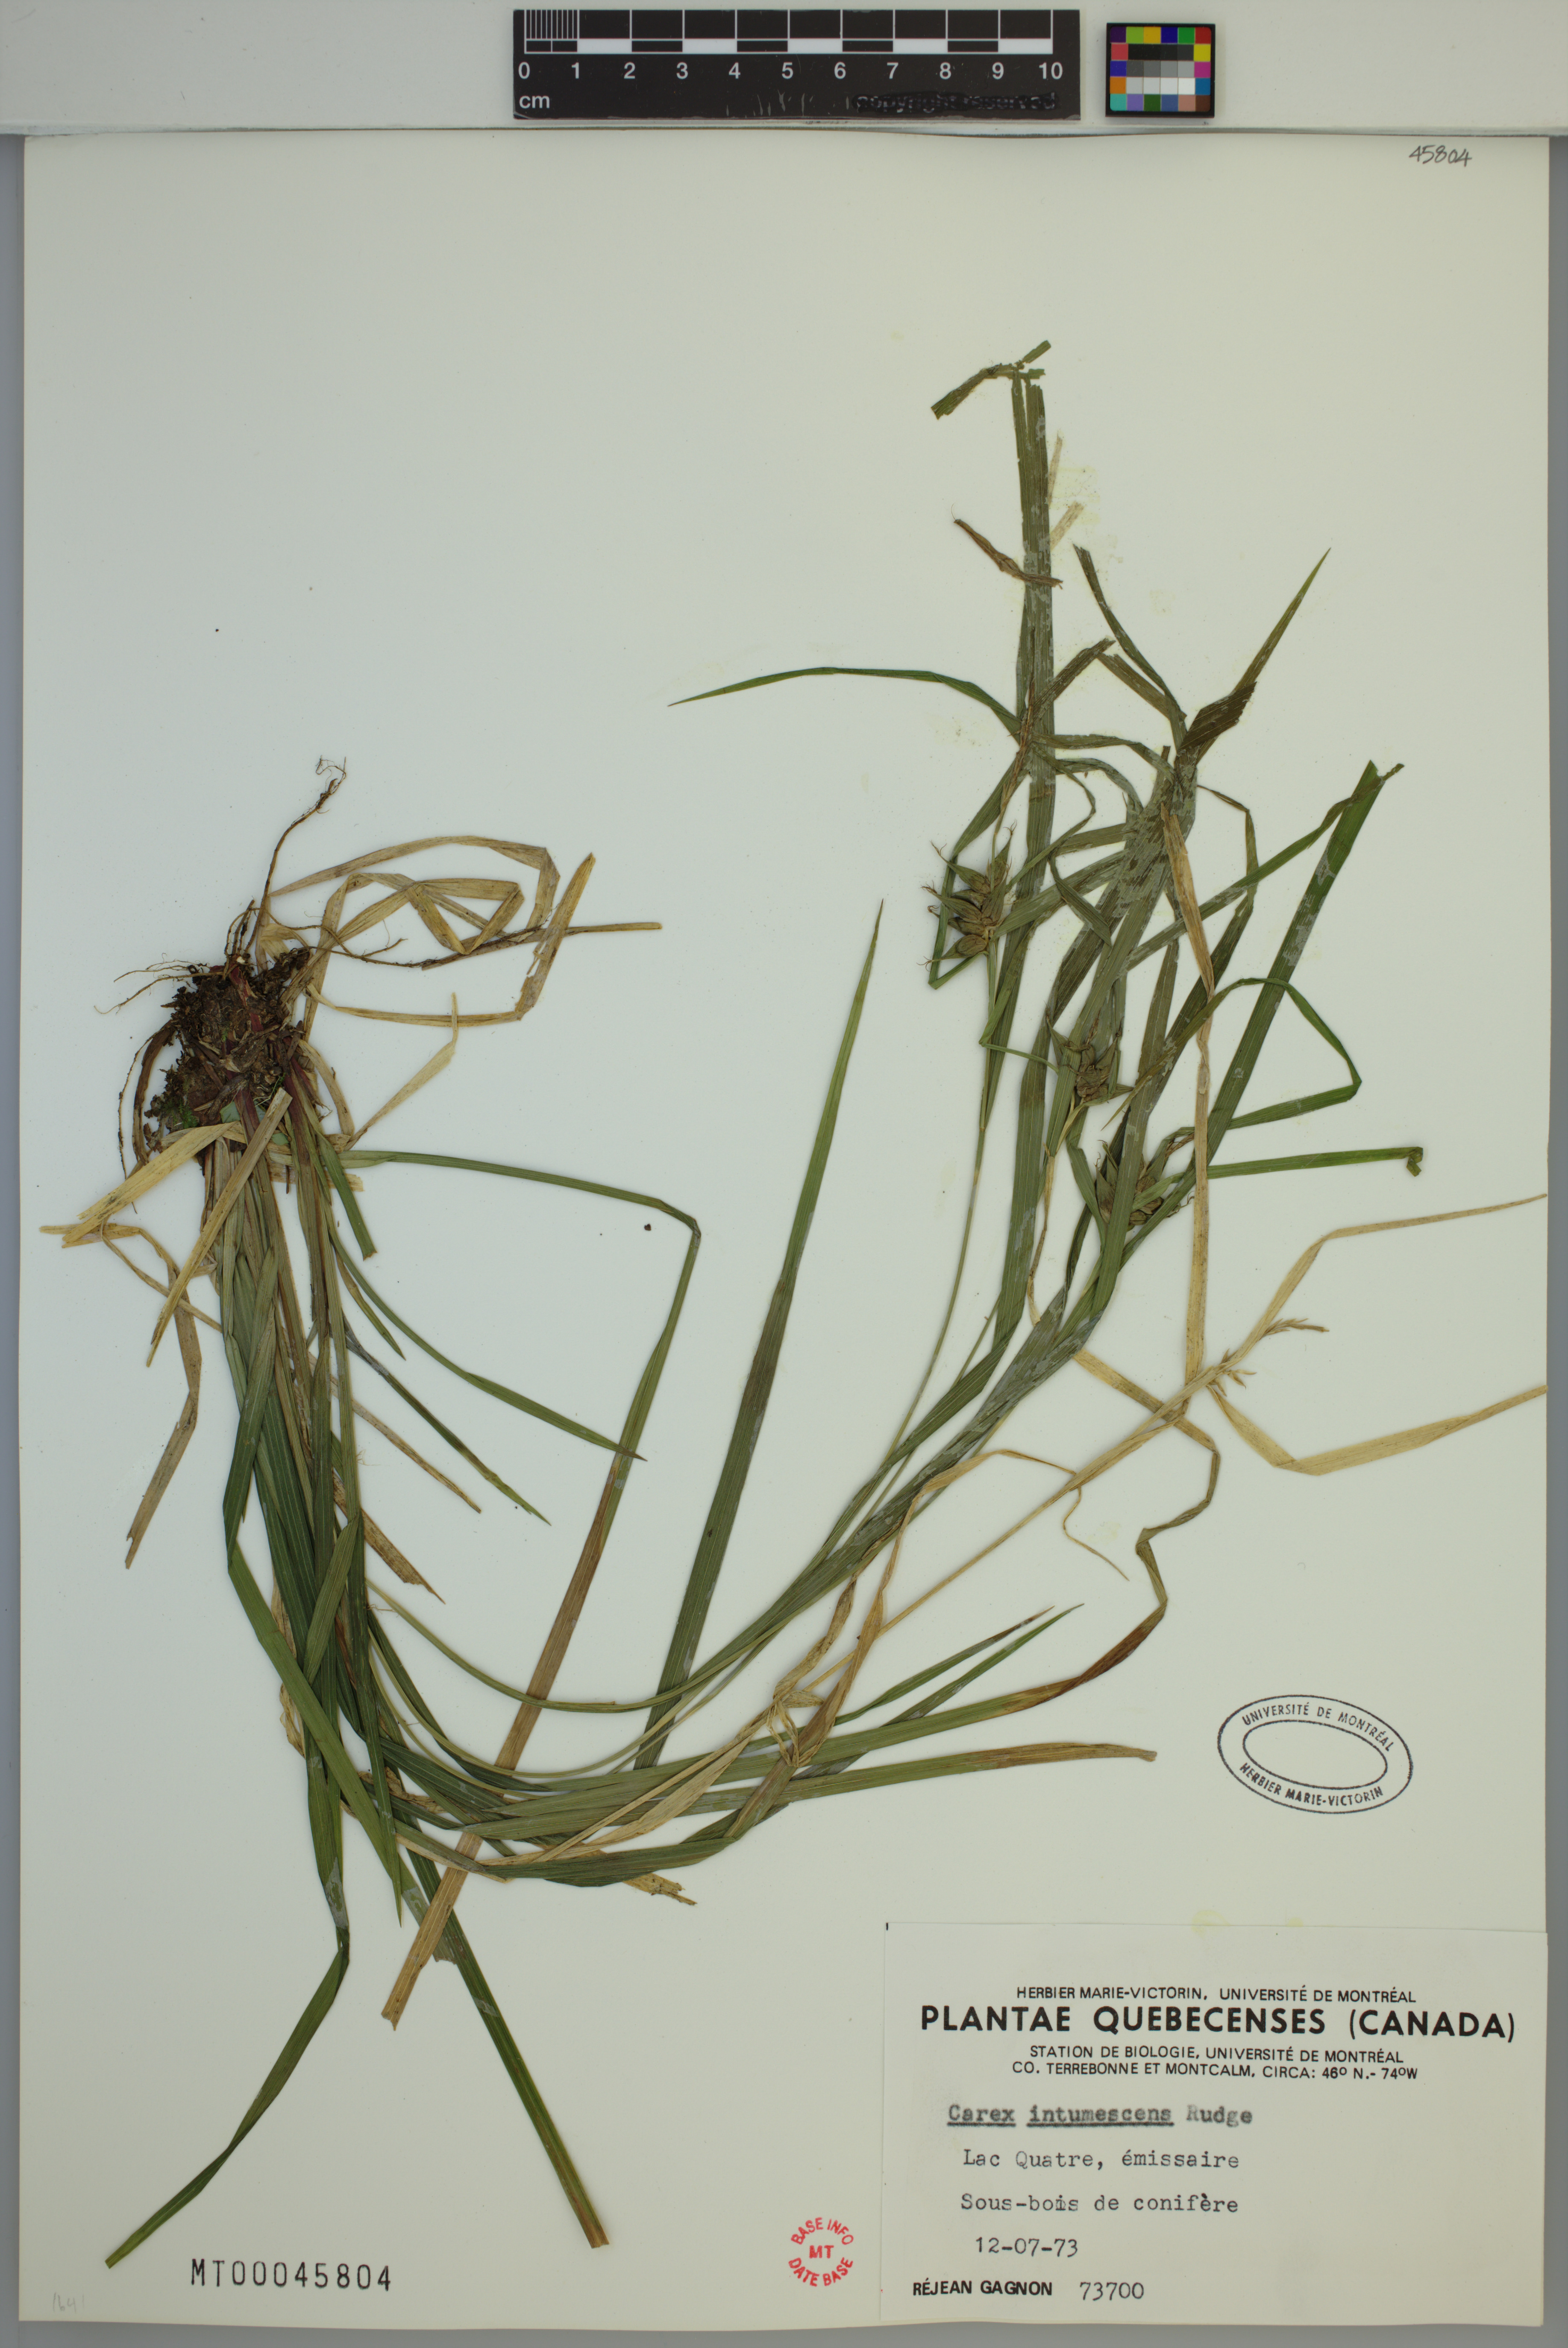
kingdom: Plantae
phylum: Tracheophyta
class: Liliopsida
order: Poales
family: Cyperaceae
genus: Carex
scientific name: Carex intumescens
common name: Greater bladder sedge
